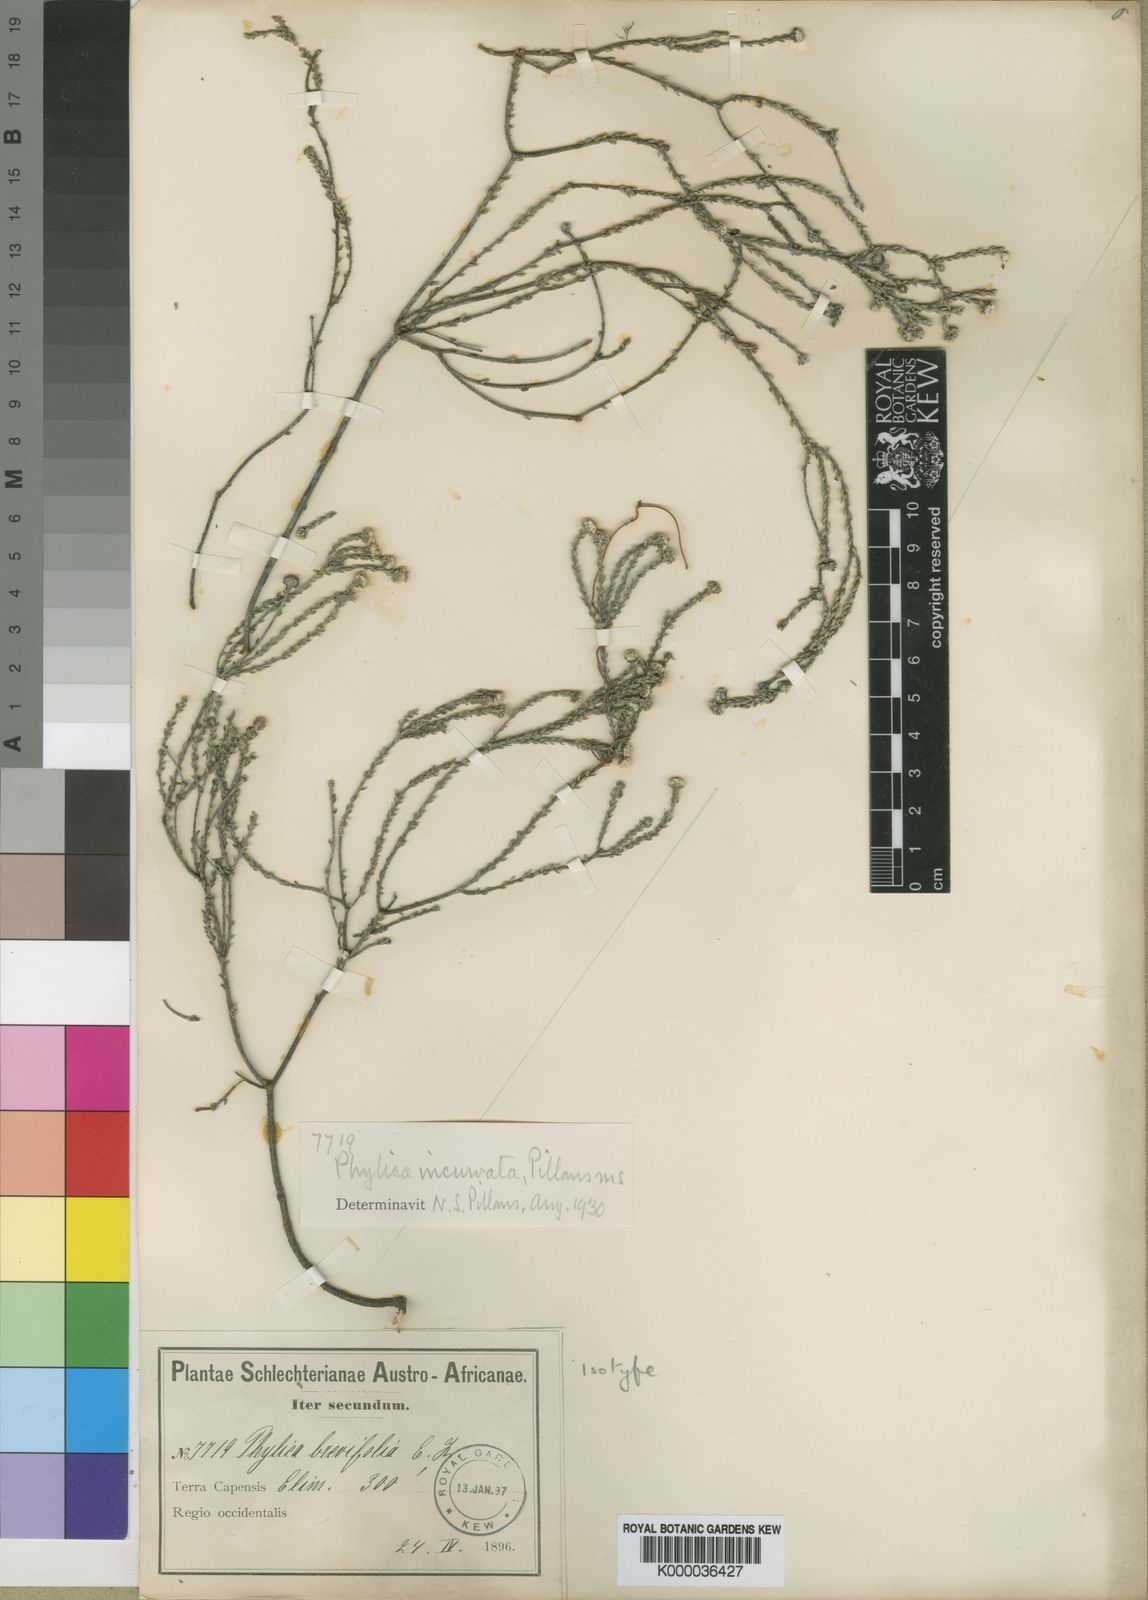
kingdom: Plantae
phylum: Tracheophyta
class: Magnoliopsida
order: Rosales
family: Rhamnaceae
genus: Phylica
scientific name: Phylica incurvata
